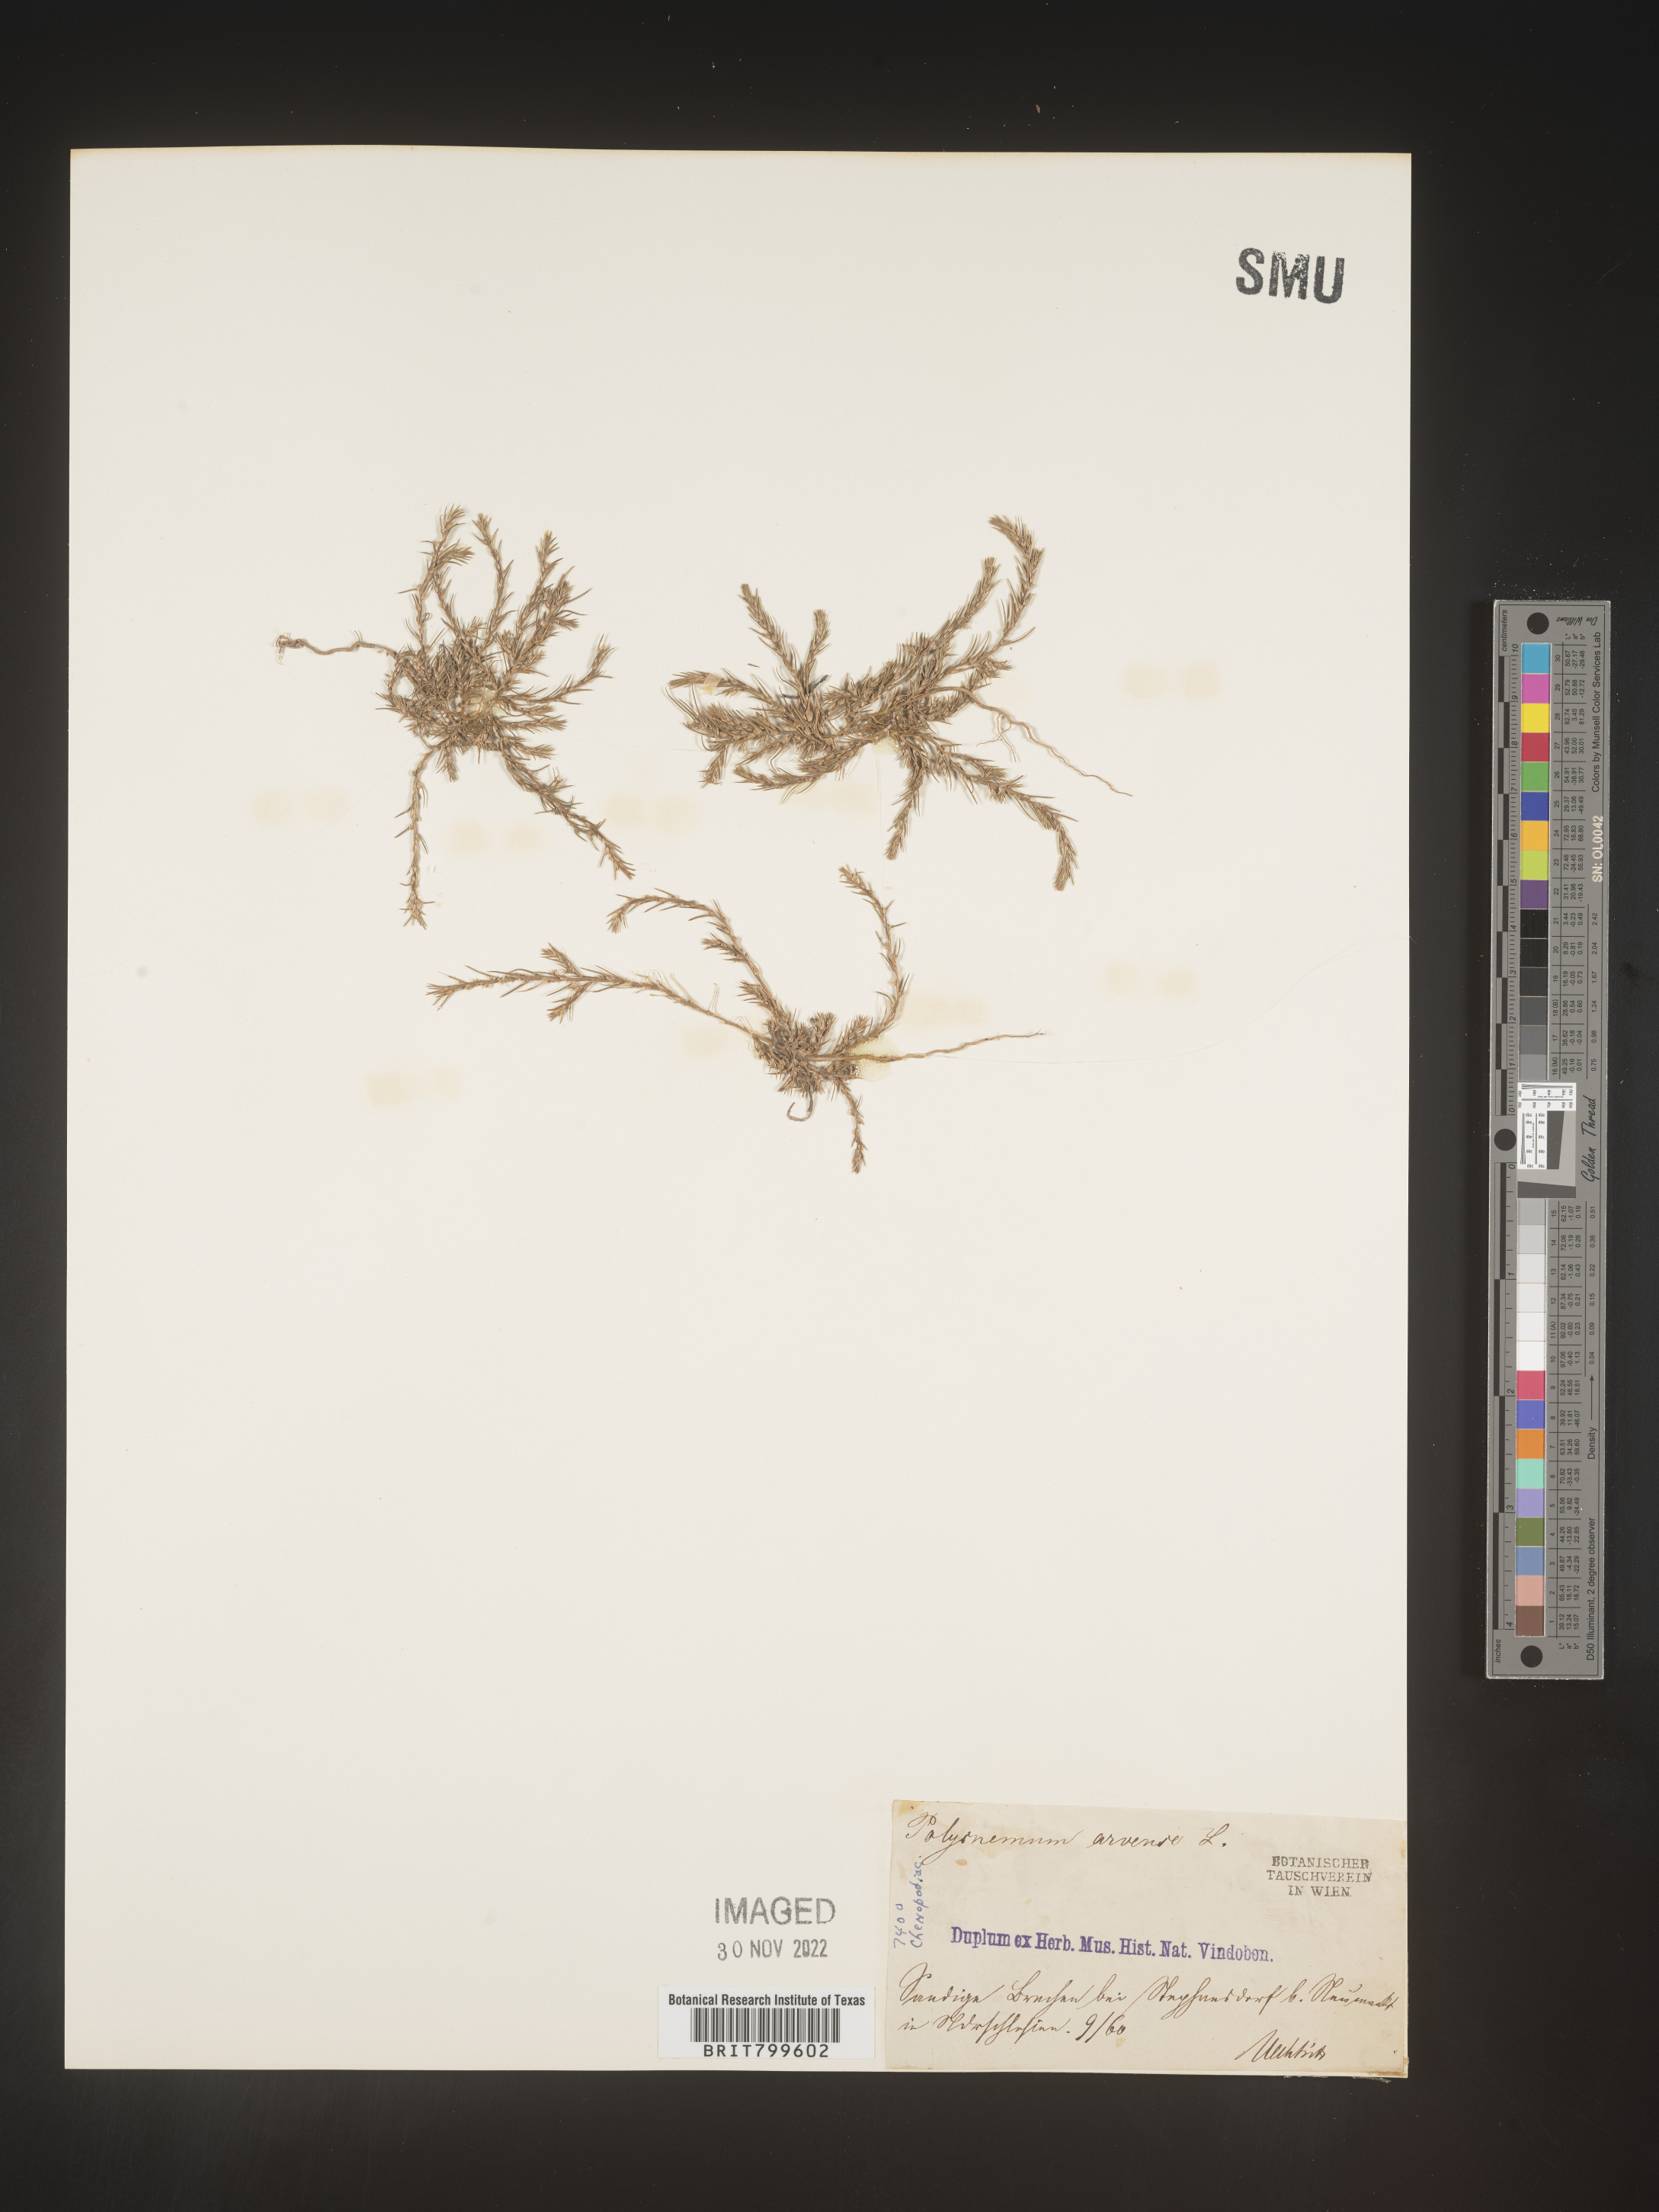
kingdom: Plantae
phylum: Tracheophyta
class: Magnoliopsida
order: Caryophyllales
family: Amaranthaceae
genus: Polycnemum
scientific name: Polycnemum
